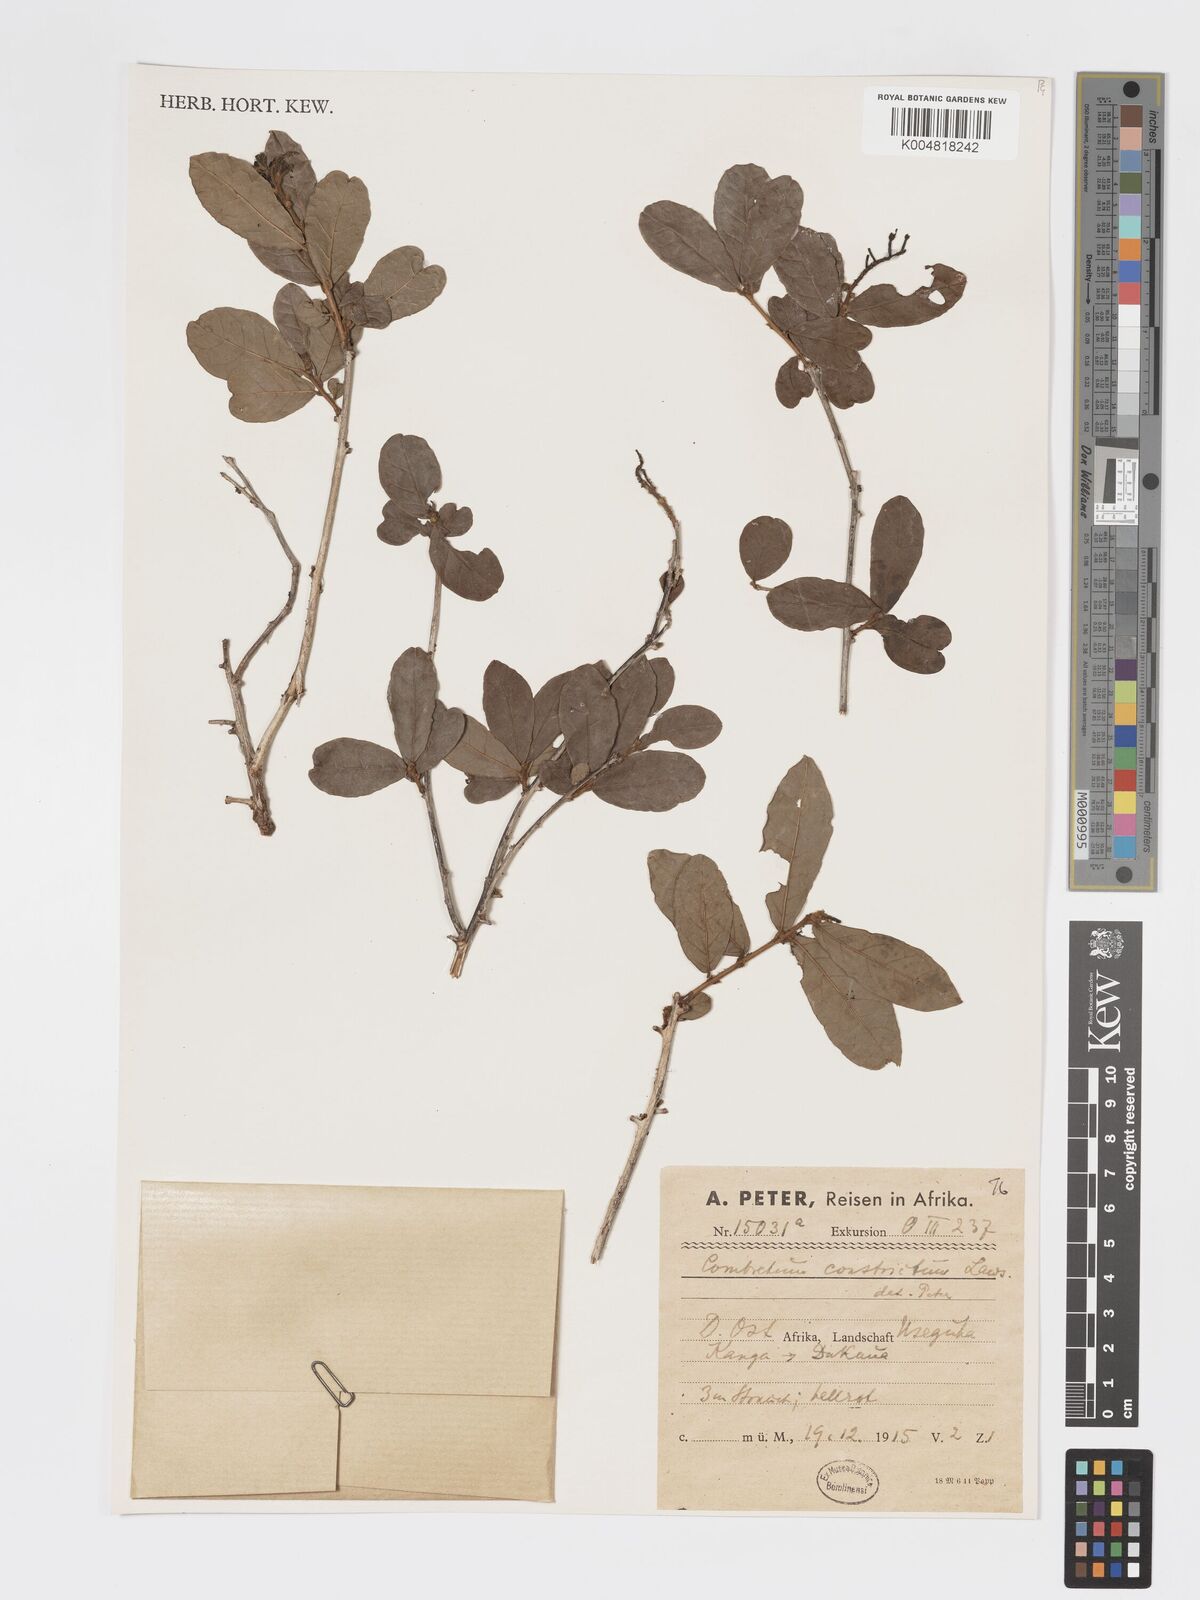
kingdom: Plantae
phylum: Tracheophyta
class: Magnoliopsida
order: Myrtales
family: Combretaceae
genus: Combretum
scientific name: Combretum constrictum
